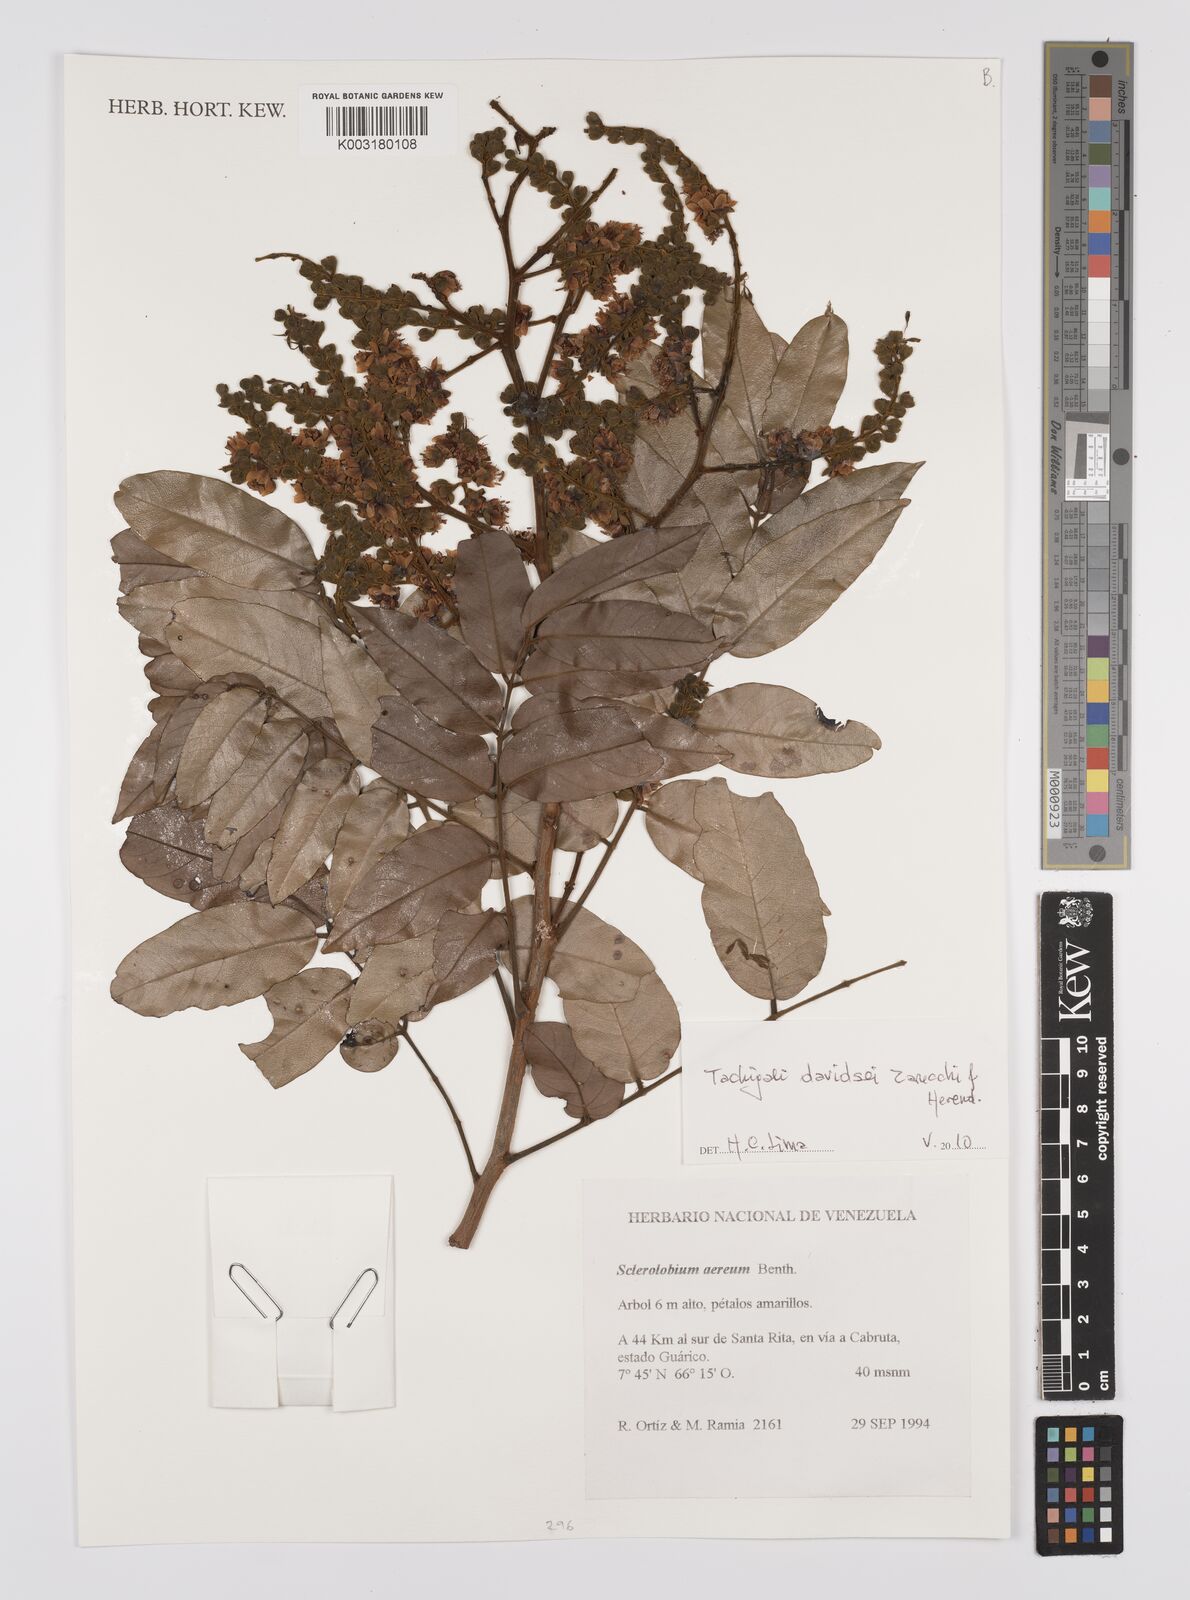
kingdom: Plantae
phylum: Tracheophyta
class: Magnoliopsida
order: Fabales
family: Fabaceae
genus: Tachigali
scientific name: Tachigali davidsei
